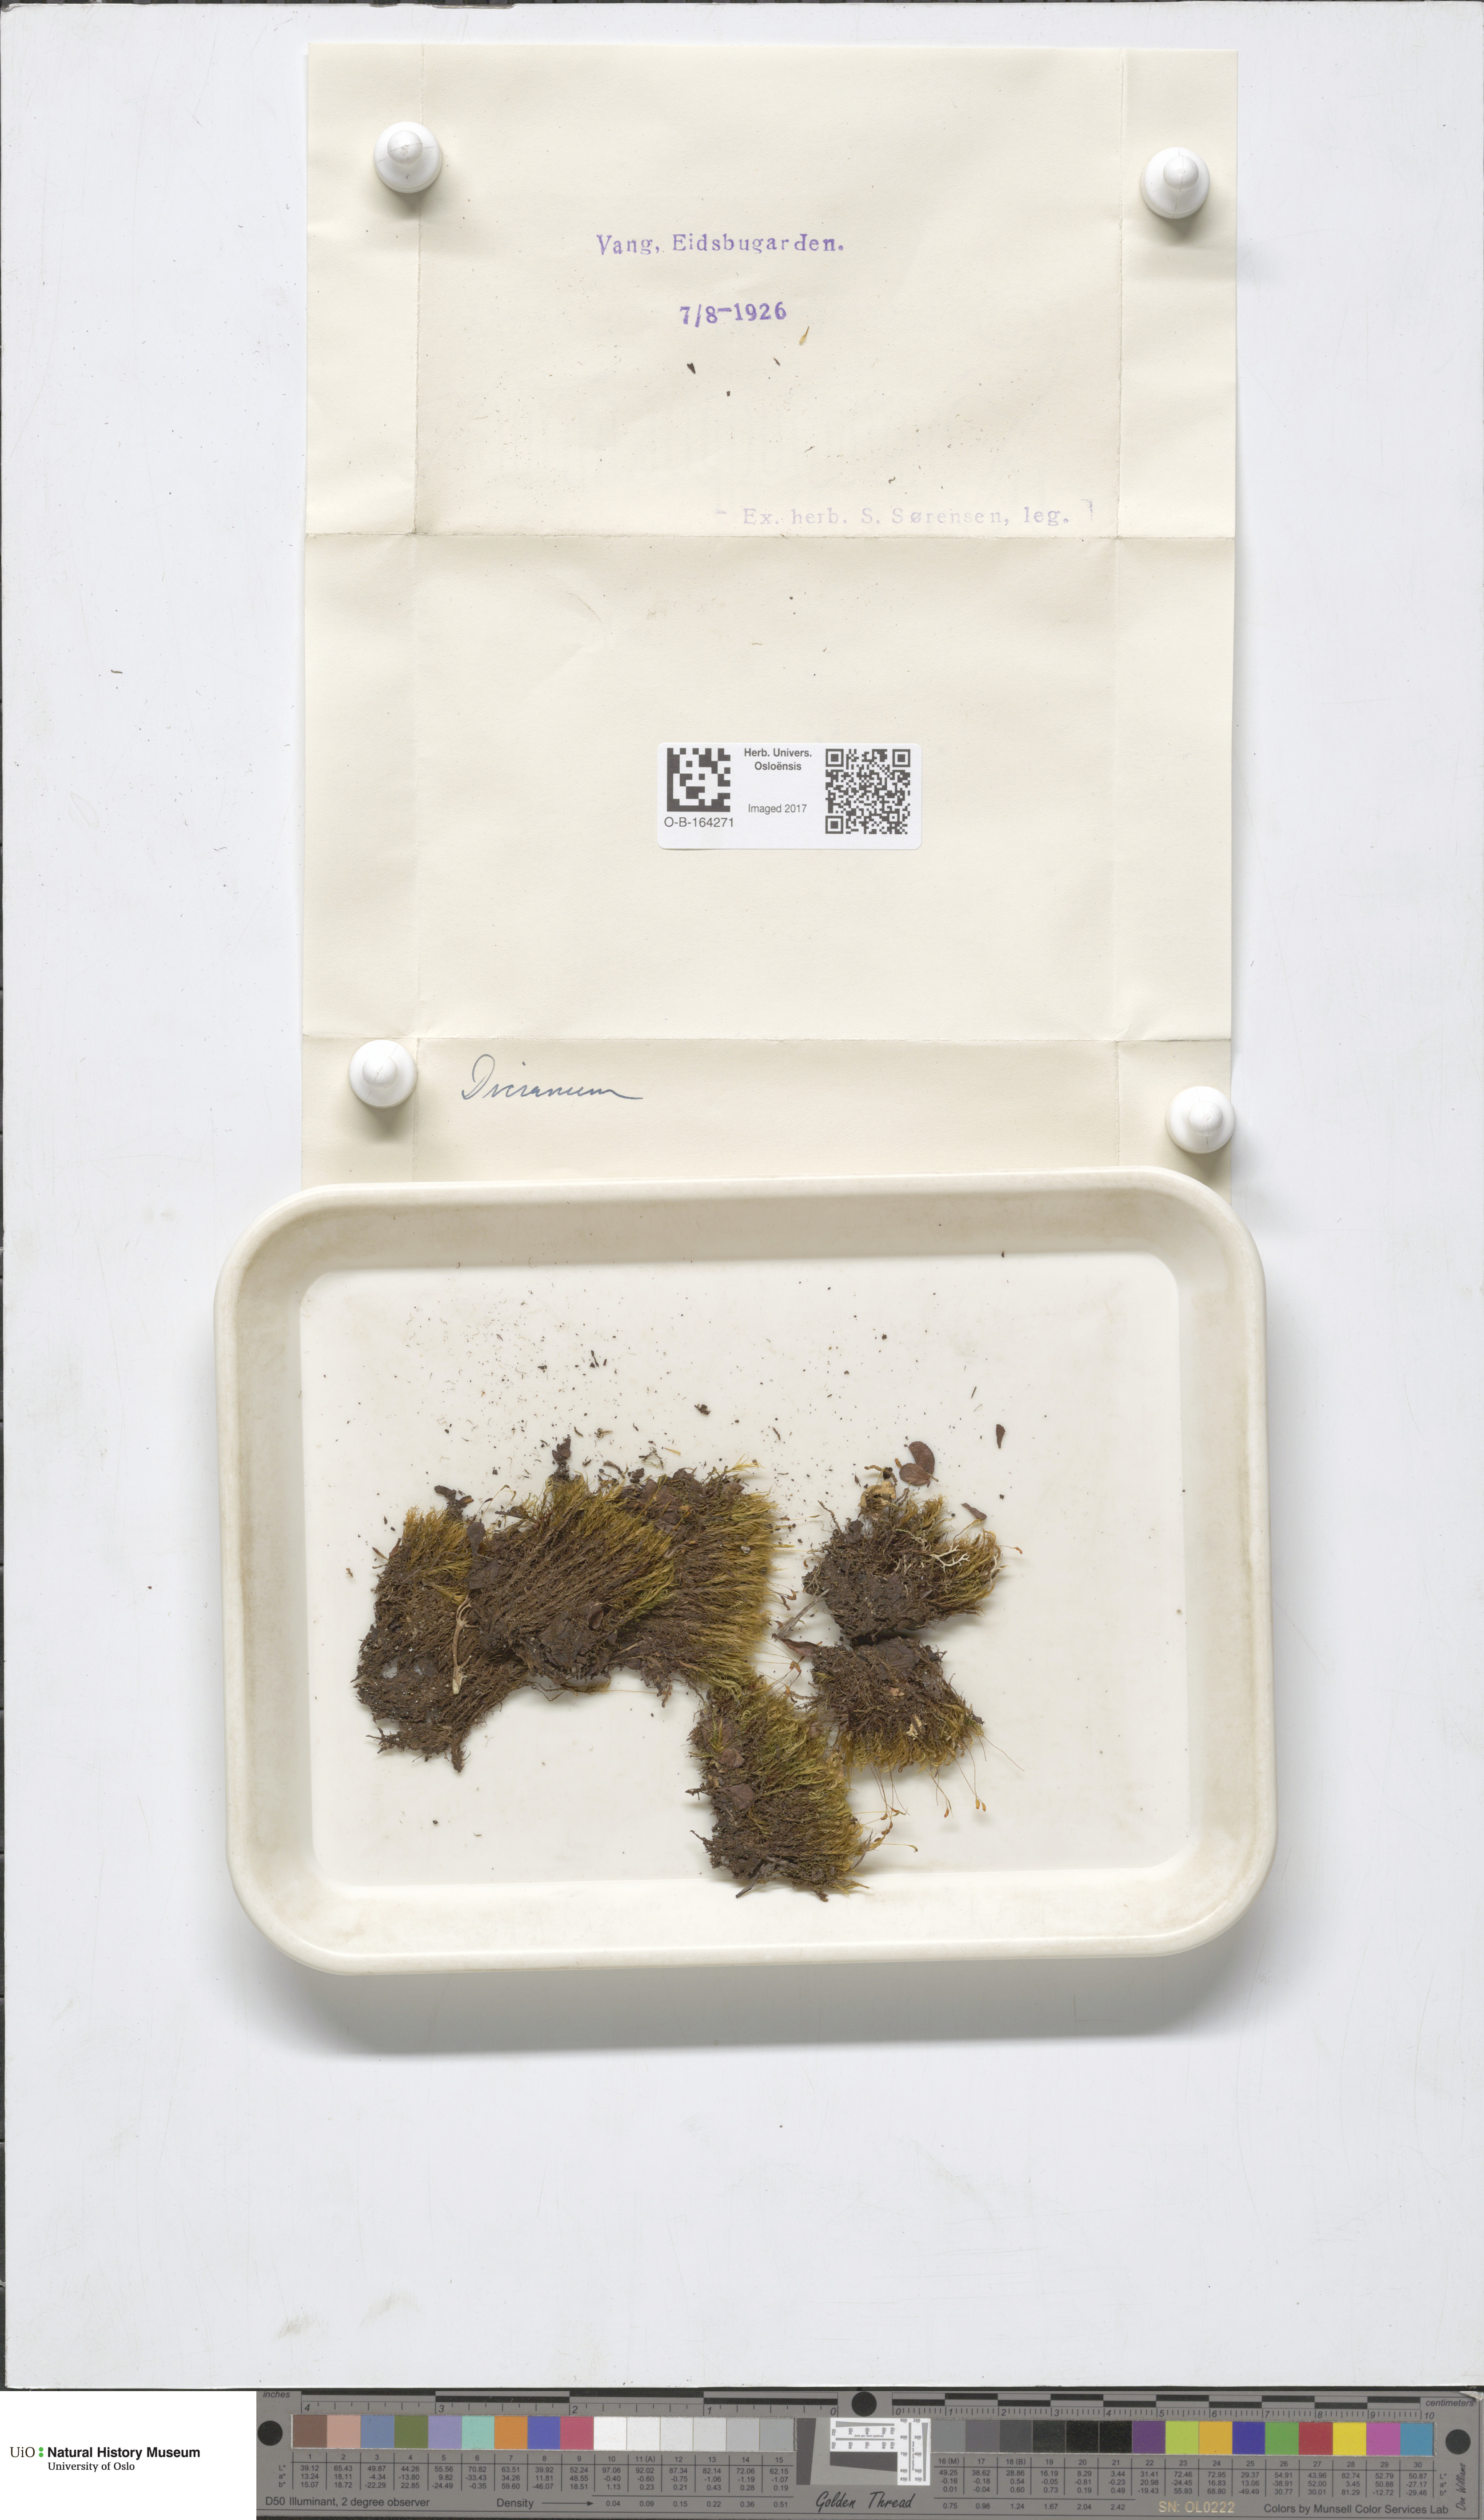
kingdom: Plantae
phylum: Bryophyta
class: Bryopsida
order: Dicranales
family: Dicranaceae
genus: Dicranum
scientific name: Dicranum
